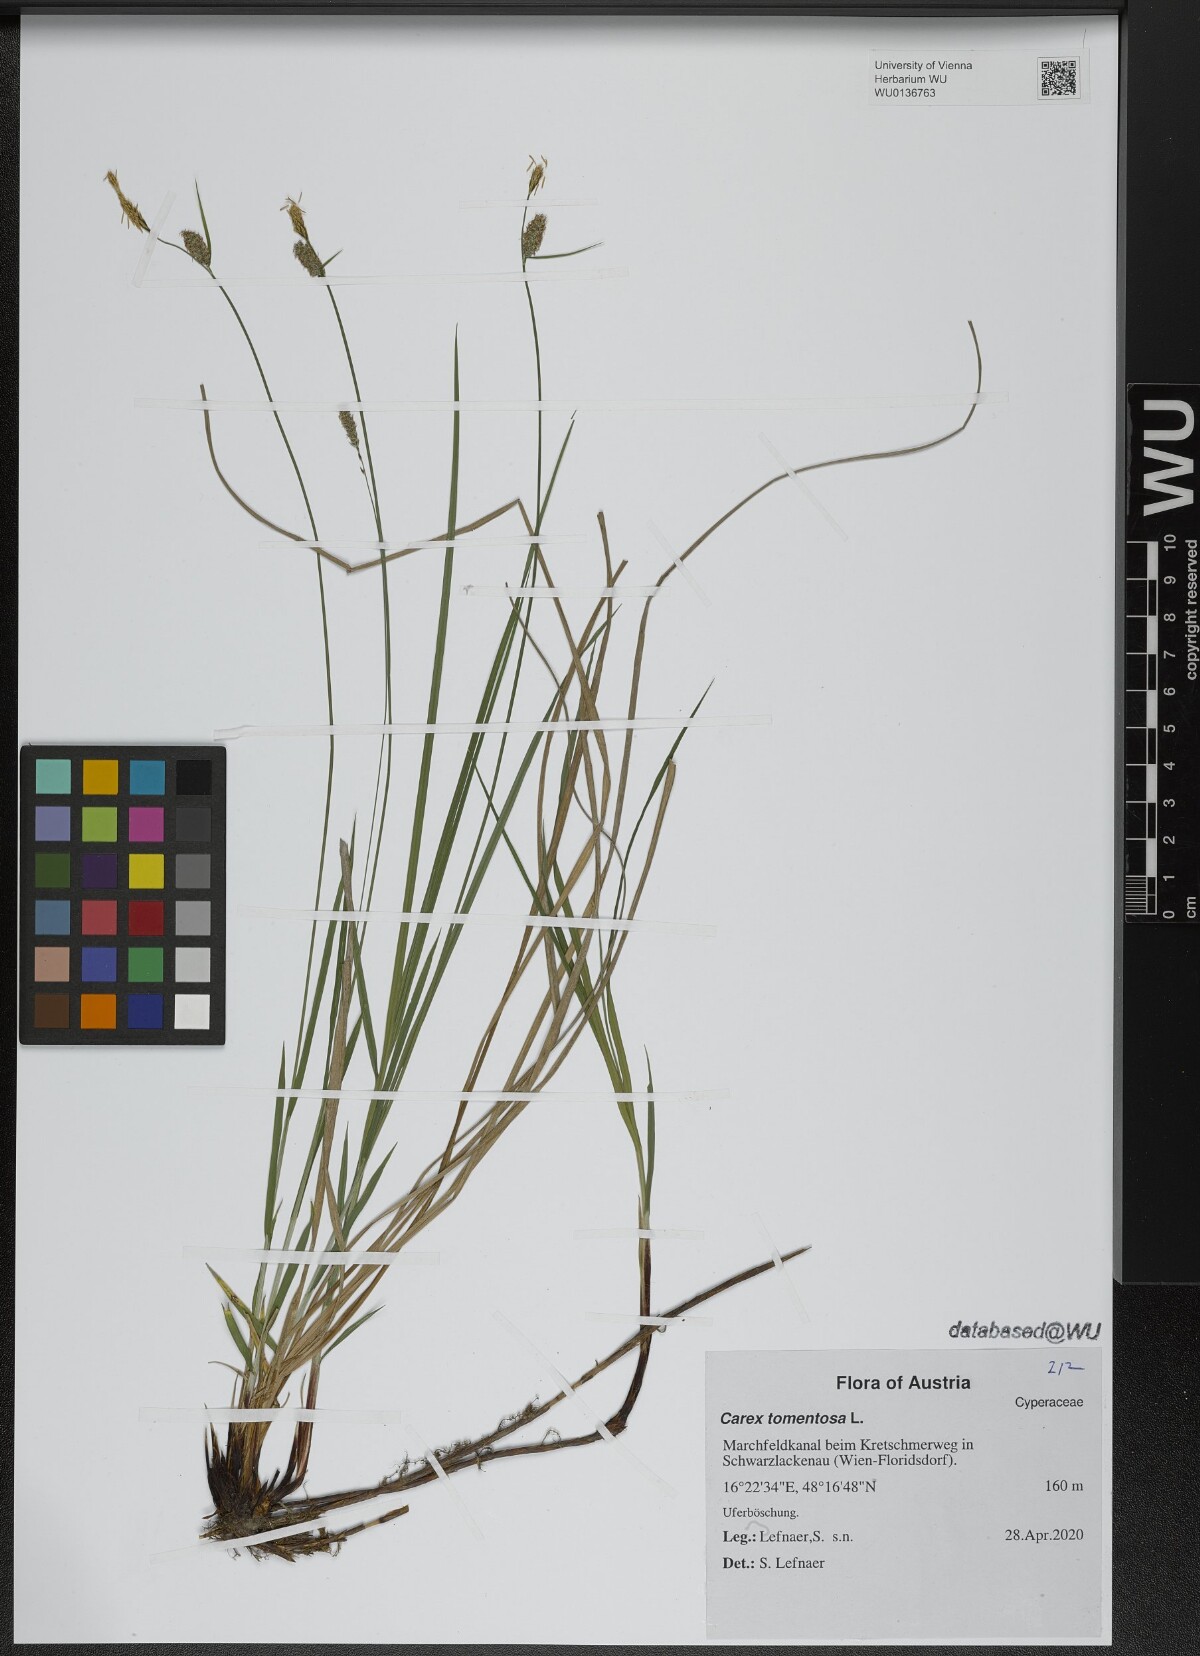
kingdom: Plantae
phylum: Tracheophyta
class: Liliopsida
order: Poales
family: Cyperaceae
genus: Carex
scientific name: Carex tomentosa
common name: Downy-fruited sedge
